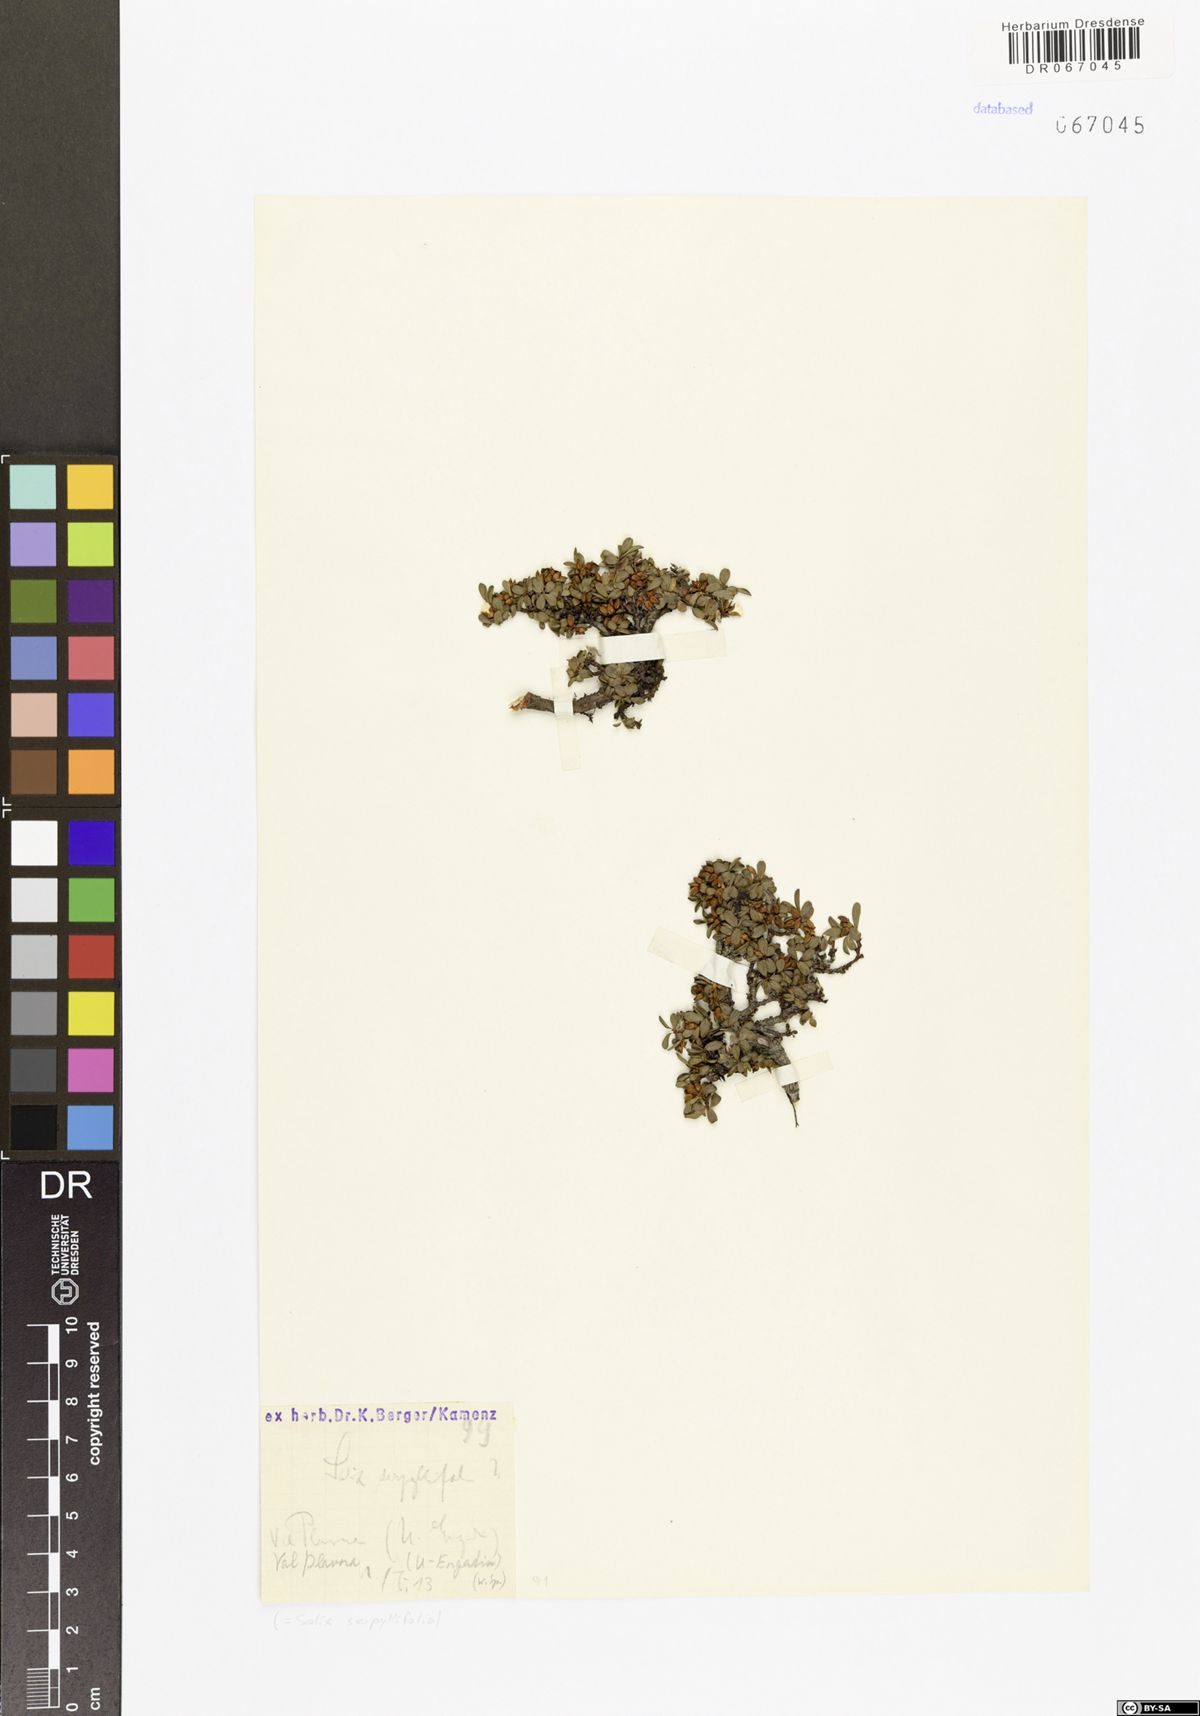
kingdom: Plantae
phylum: Tracheophyta
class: Magnoliopsida
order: Malpighiales
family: Salicaceae
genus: Salix
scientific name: Salix serpillifolia
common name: Thyme-leaf willow
